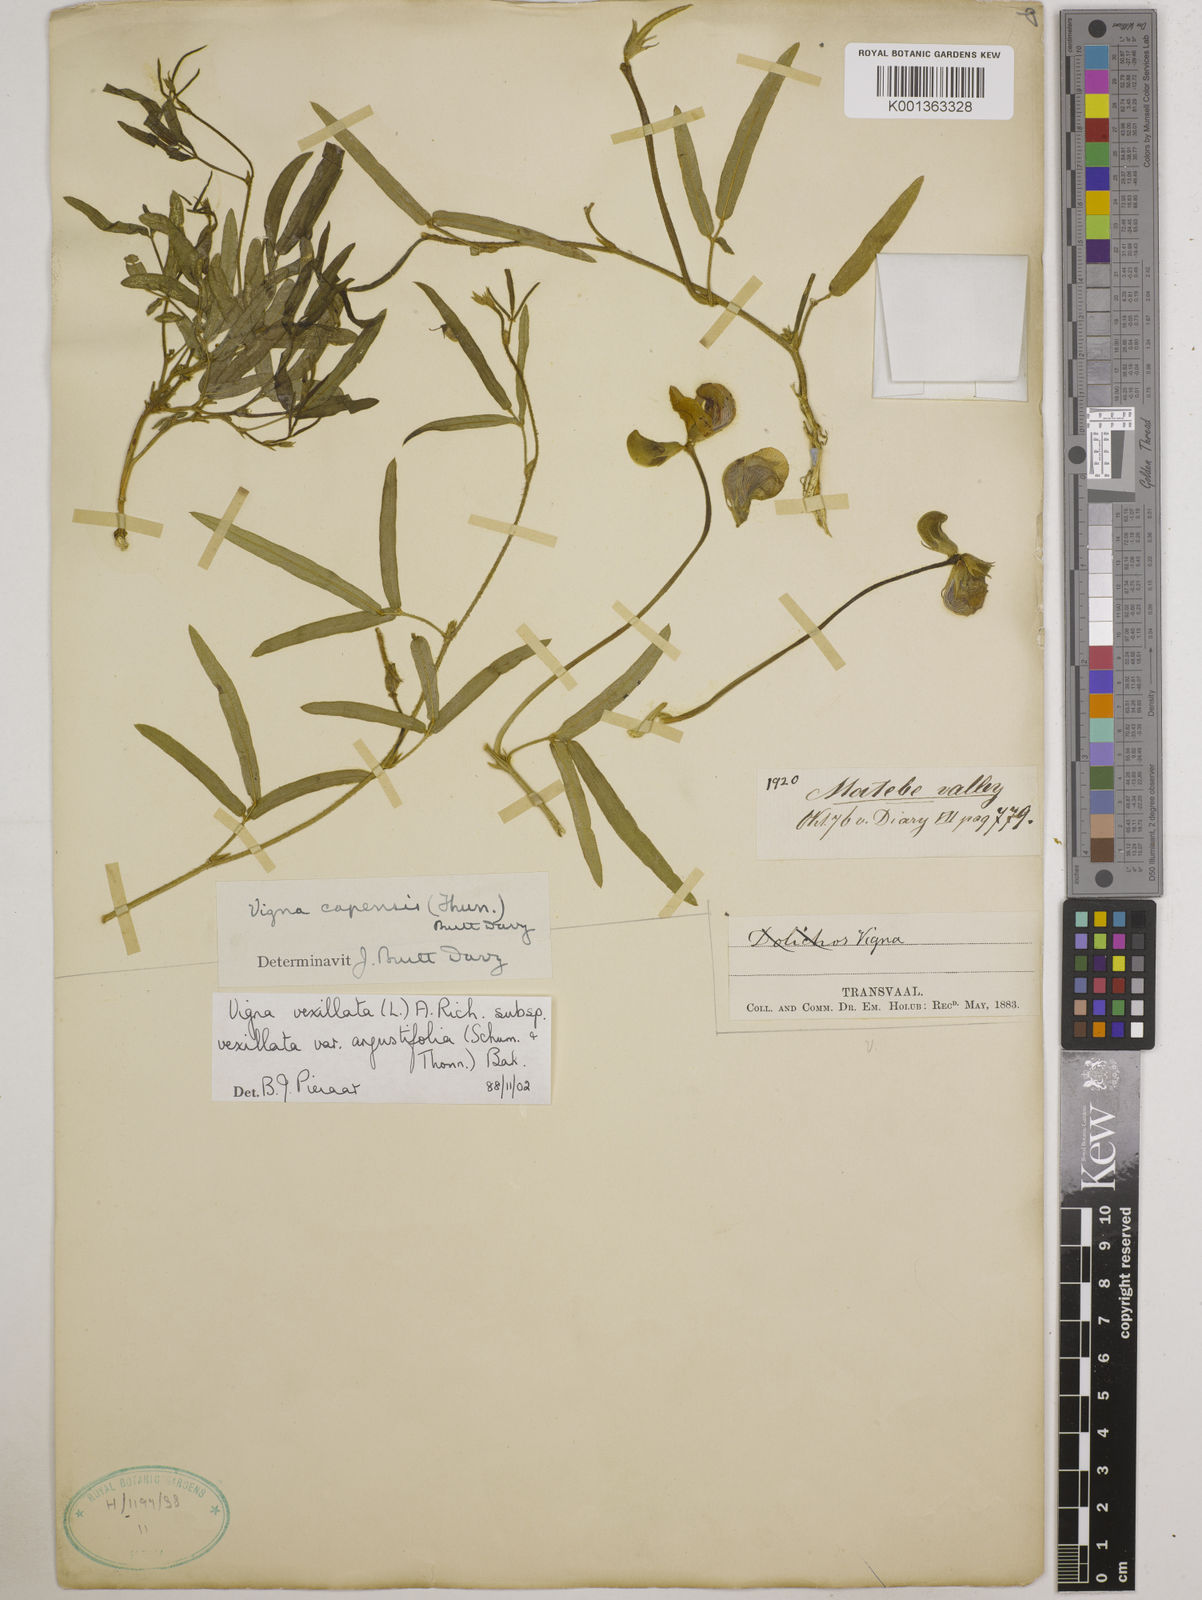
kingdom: Plantae
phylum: Tracheophyta
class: Magnoliopsida
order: Fabales
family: Fabaceae
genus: Vigna
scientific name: Vigna
